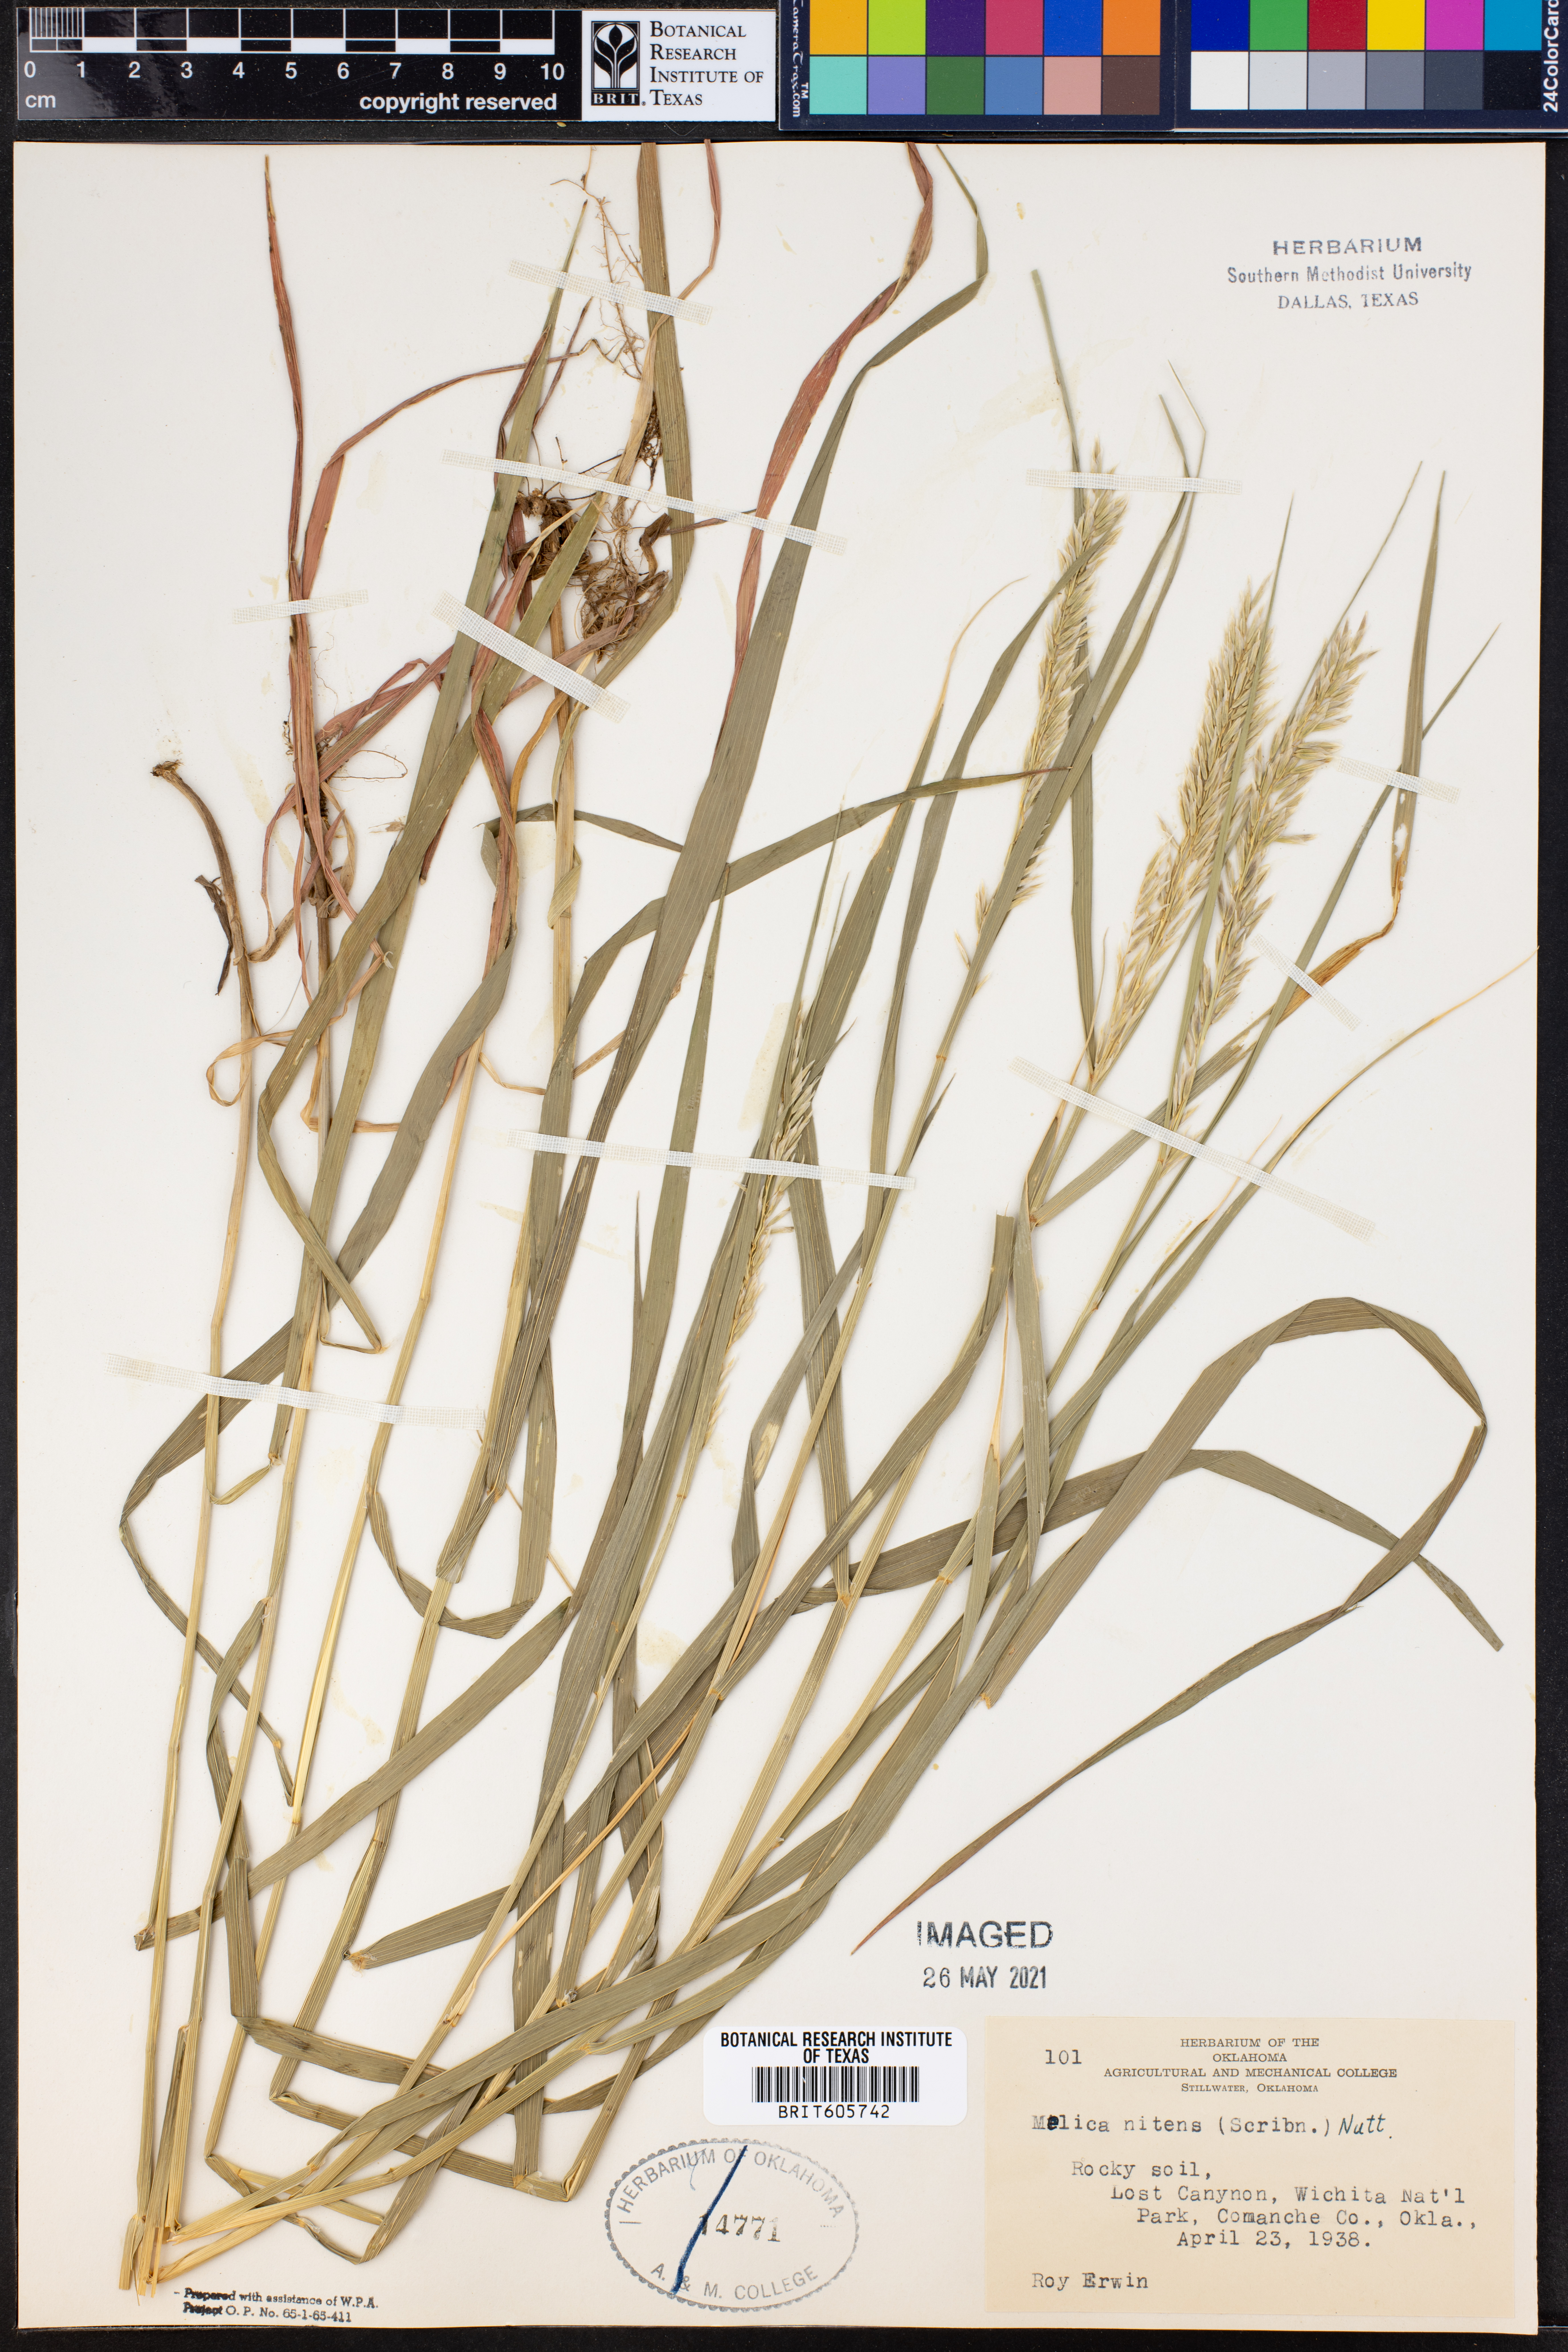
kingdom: Plantae
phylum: Tracheophyta
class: Liliopsida
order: Poales
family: Poaceae
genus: Melica
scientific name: Melica nitens
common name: Three-flower melic
